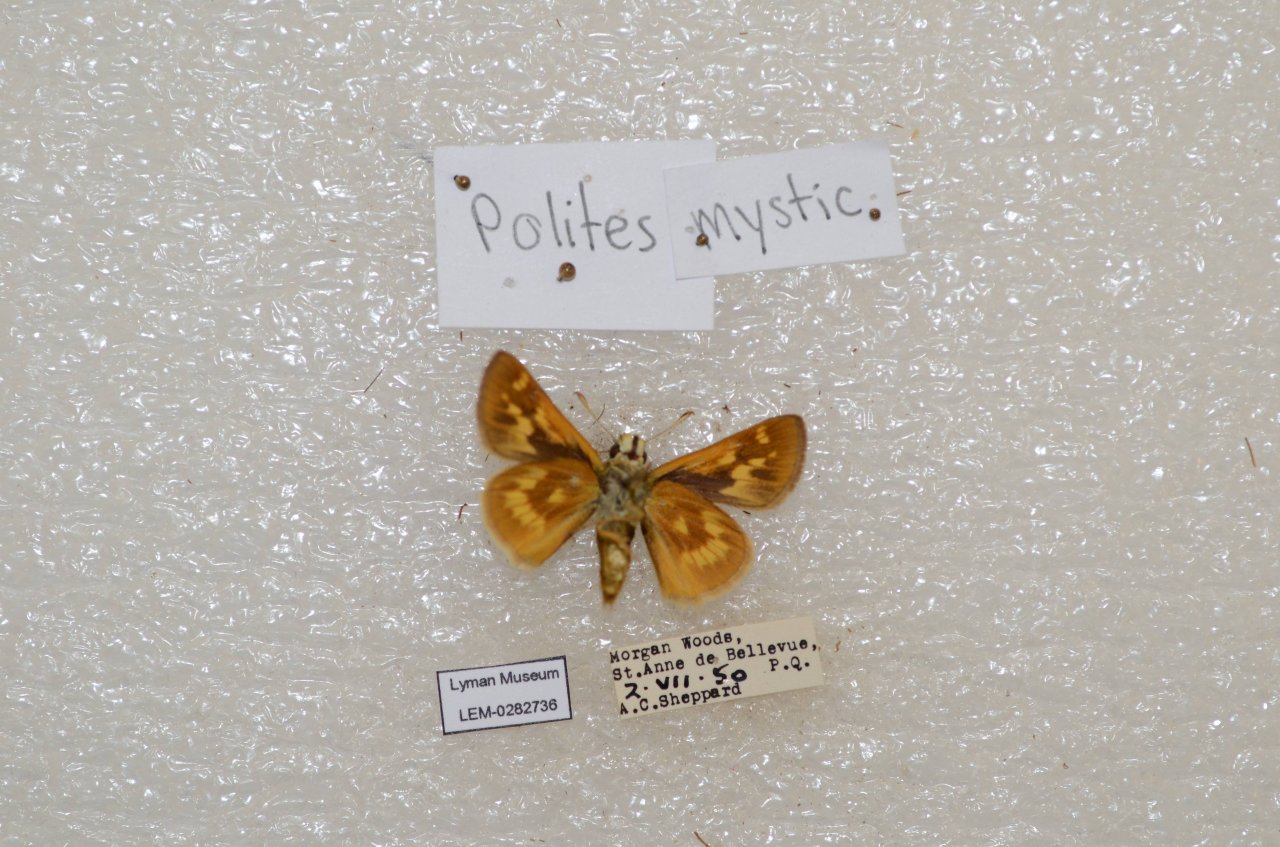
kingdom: Animalia
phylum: Arthropoda
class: Insecta
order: Lepidoptera
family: Hesperiidae
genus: Polites
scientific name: Polites
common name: Long Dash Skipper
